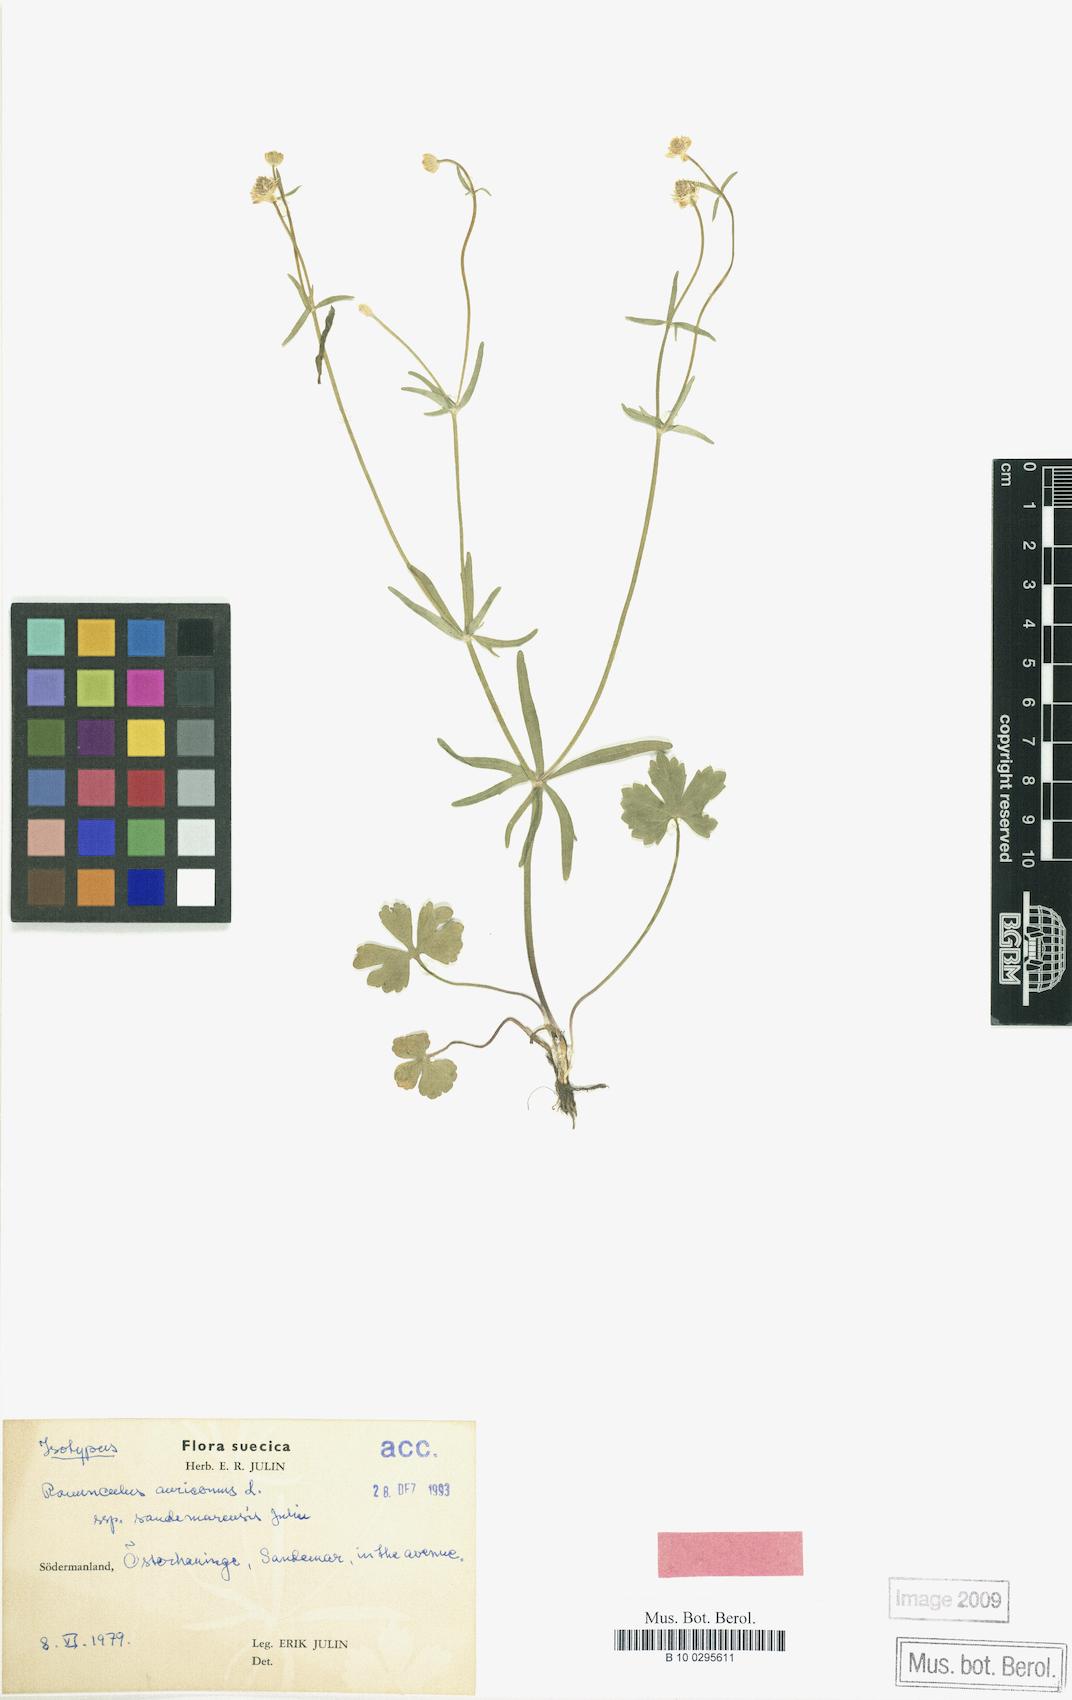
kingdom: Plantae
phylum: Tracheophyta
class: Magnoliopsida
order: Ranunculales
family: Ranunculaceae
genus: Ranunculus
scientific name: Ranunculus sandemarensis
